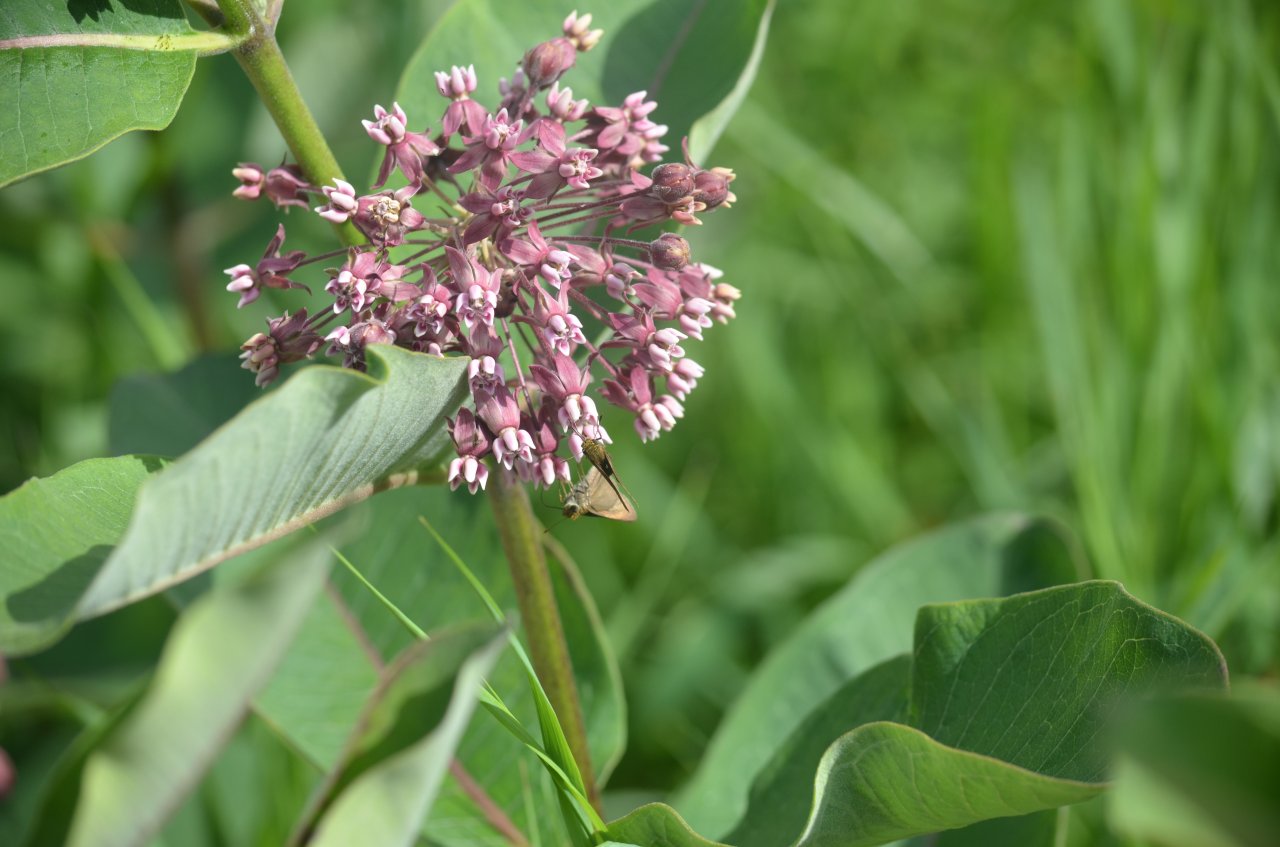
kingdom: Animalia
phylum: Arthropoda
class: Insecta
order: Lepidoptera
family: Hesperiidae
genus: Euphyes
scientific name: Euphyes vestris
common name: Dun Skipper
